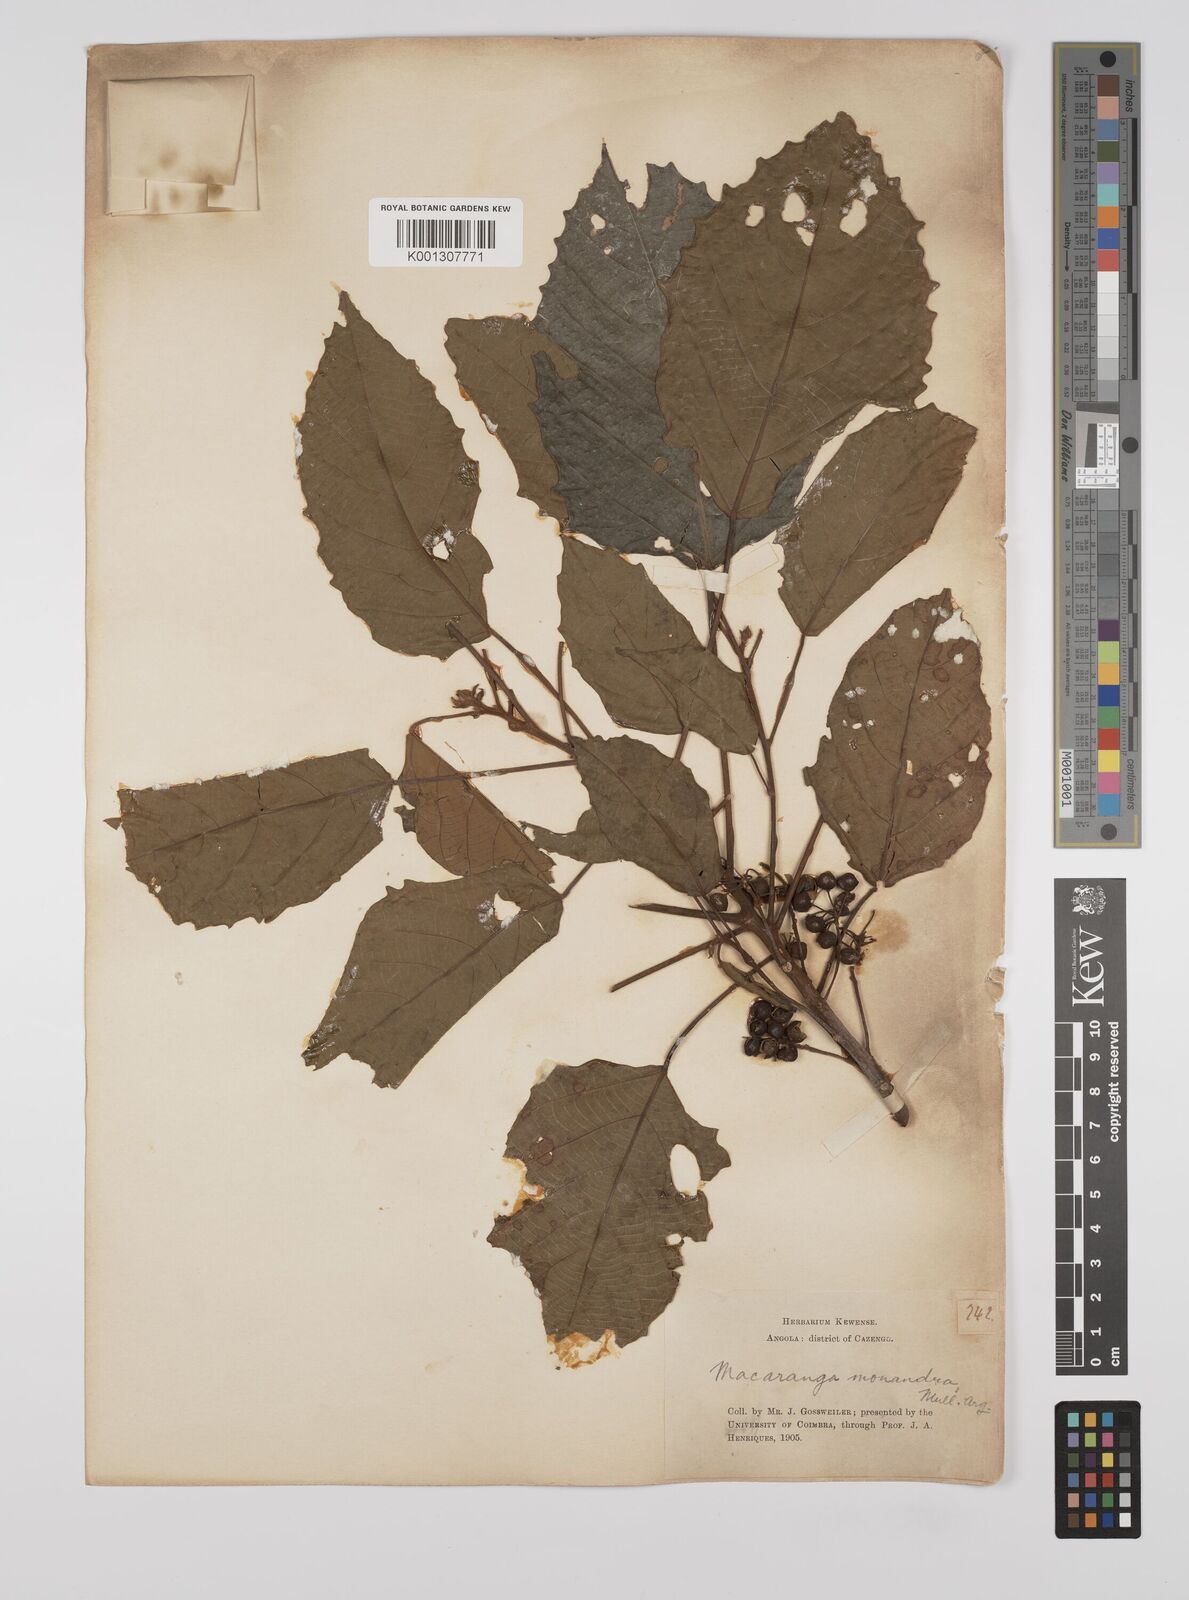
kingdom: Plantae
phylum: Tracheophyta
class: Magnoliopsida
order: Malpighiales
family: Euphorbiaceae
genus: Macaranga
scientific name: Macaranga
